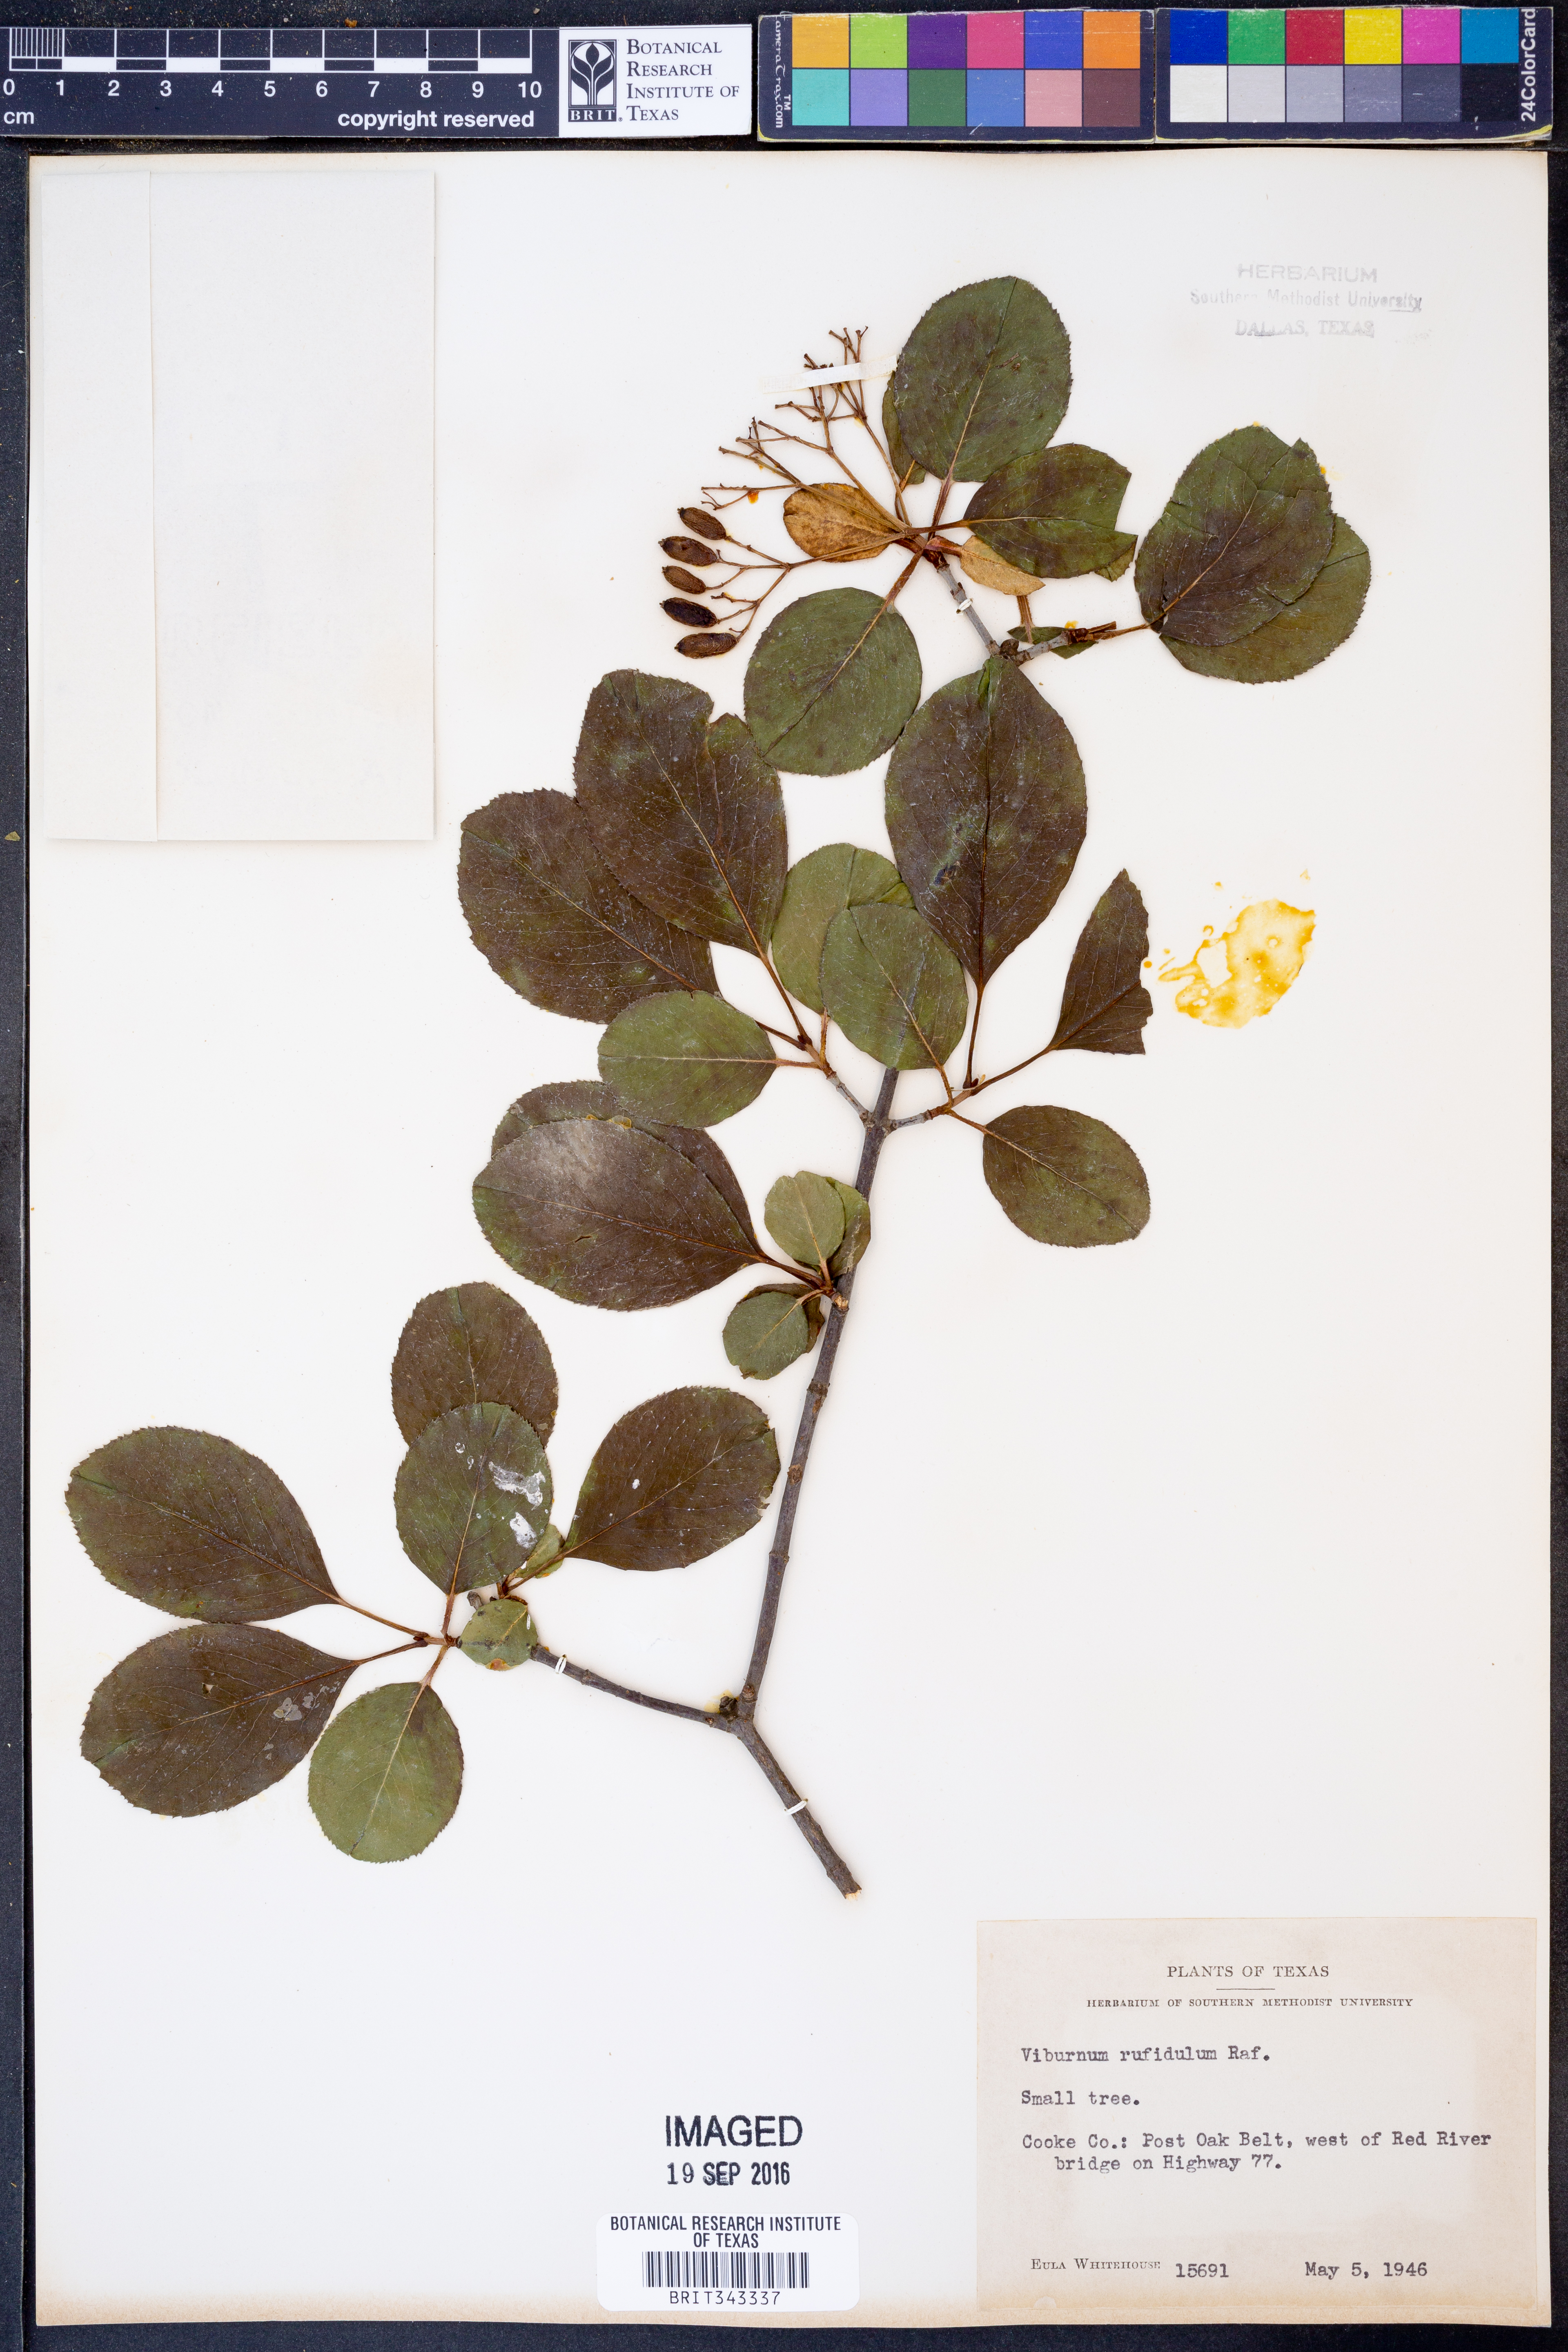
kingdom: Plantae
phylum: Tracheophyta
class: Magnoliopsida
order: Dipsacales
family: Viburnaceae
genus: Viburnum
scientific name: Viburnum rufidulum
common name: Blue haw
